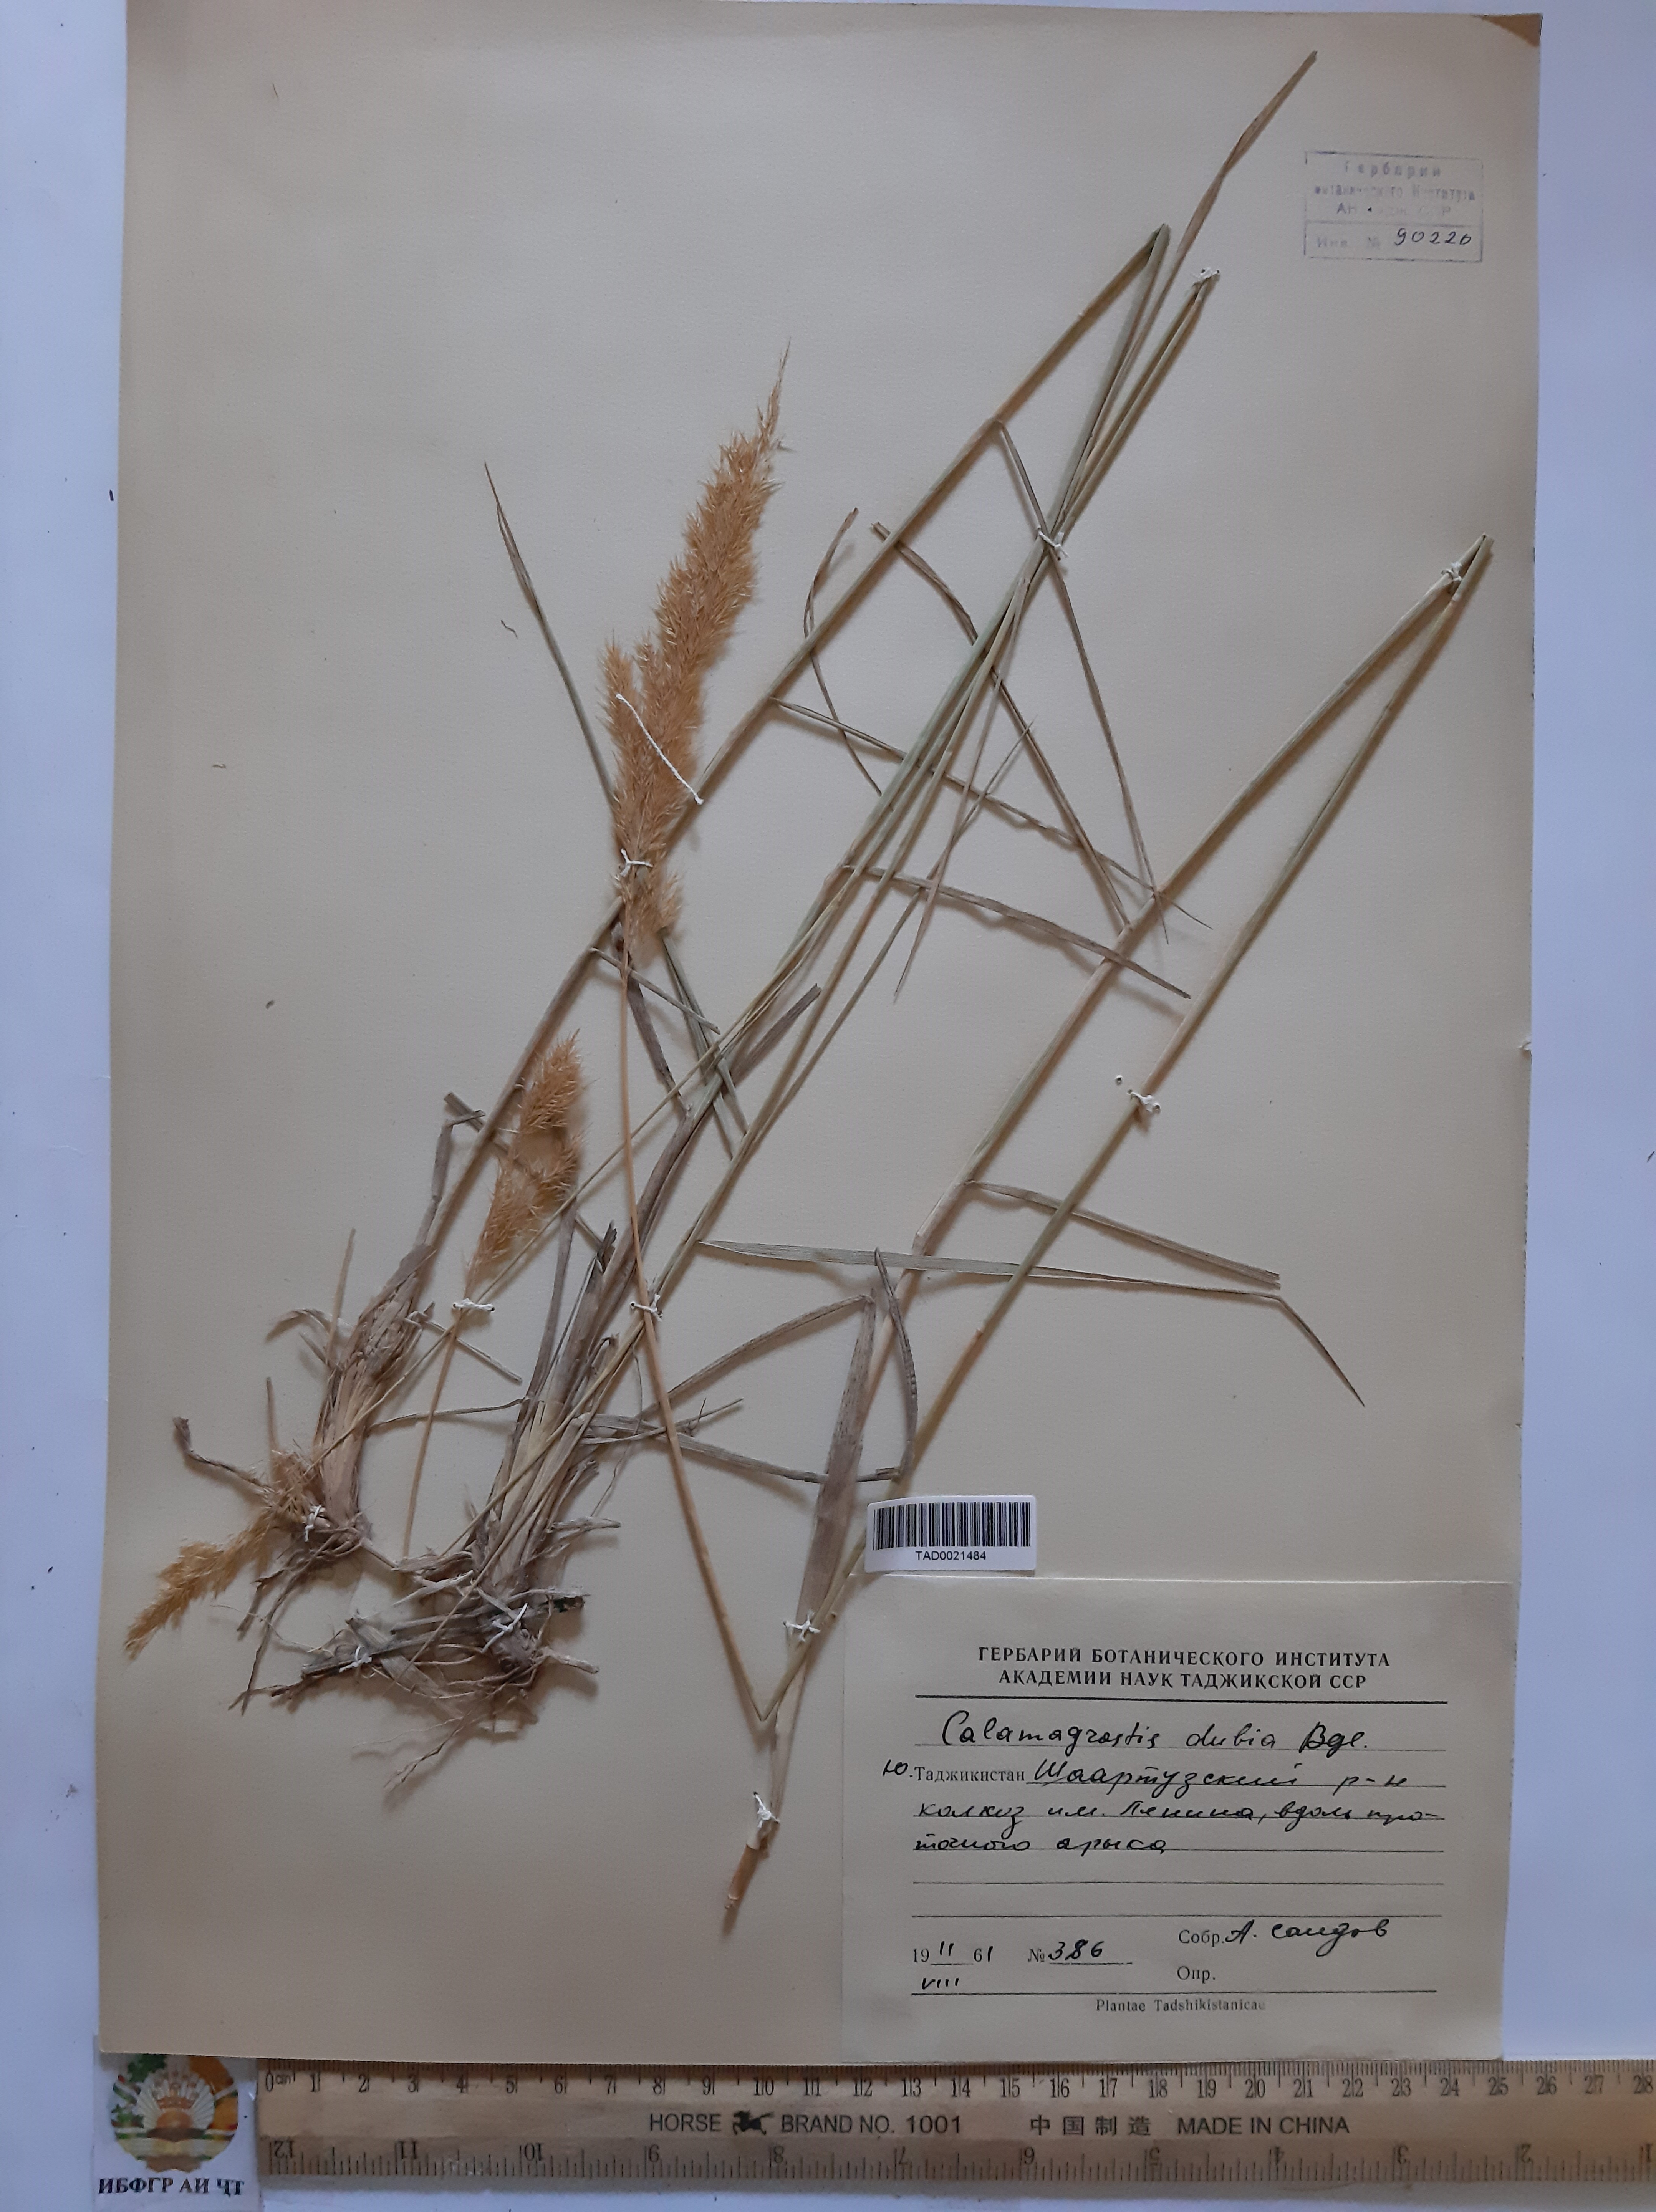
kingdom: Plantae
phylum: Tracheophyta
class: Liliopsida
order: Poales
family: Poaceae
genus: Calamagrostis
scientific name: Calamagrostis pseudophragmites
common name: Coastal small-reed
